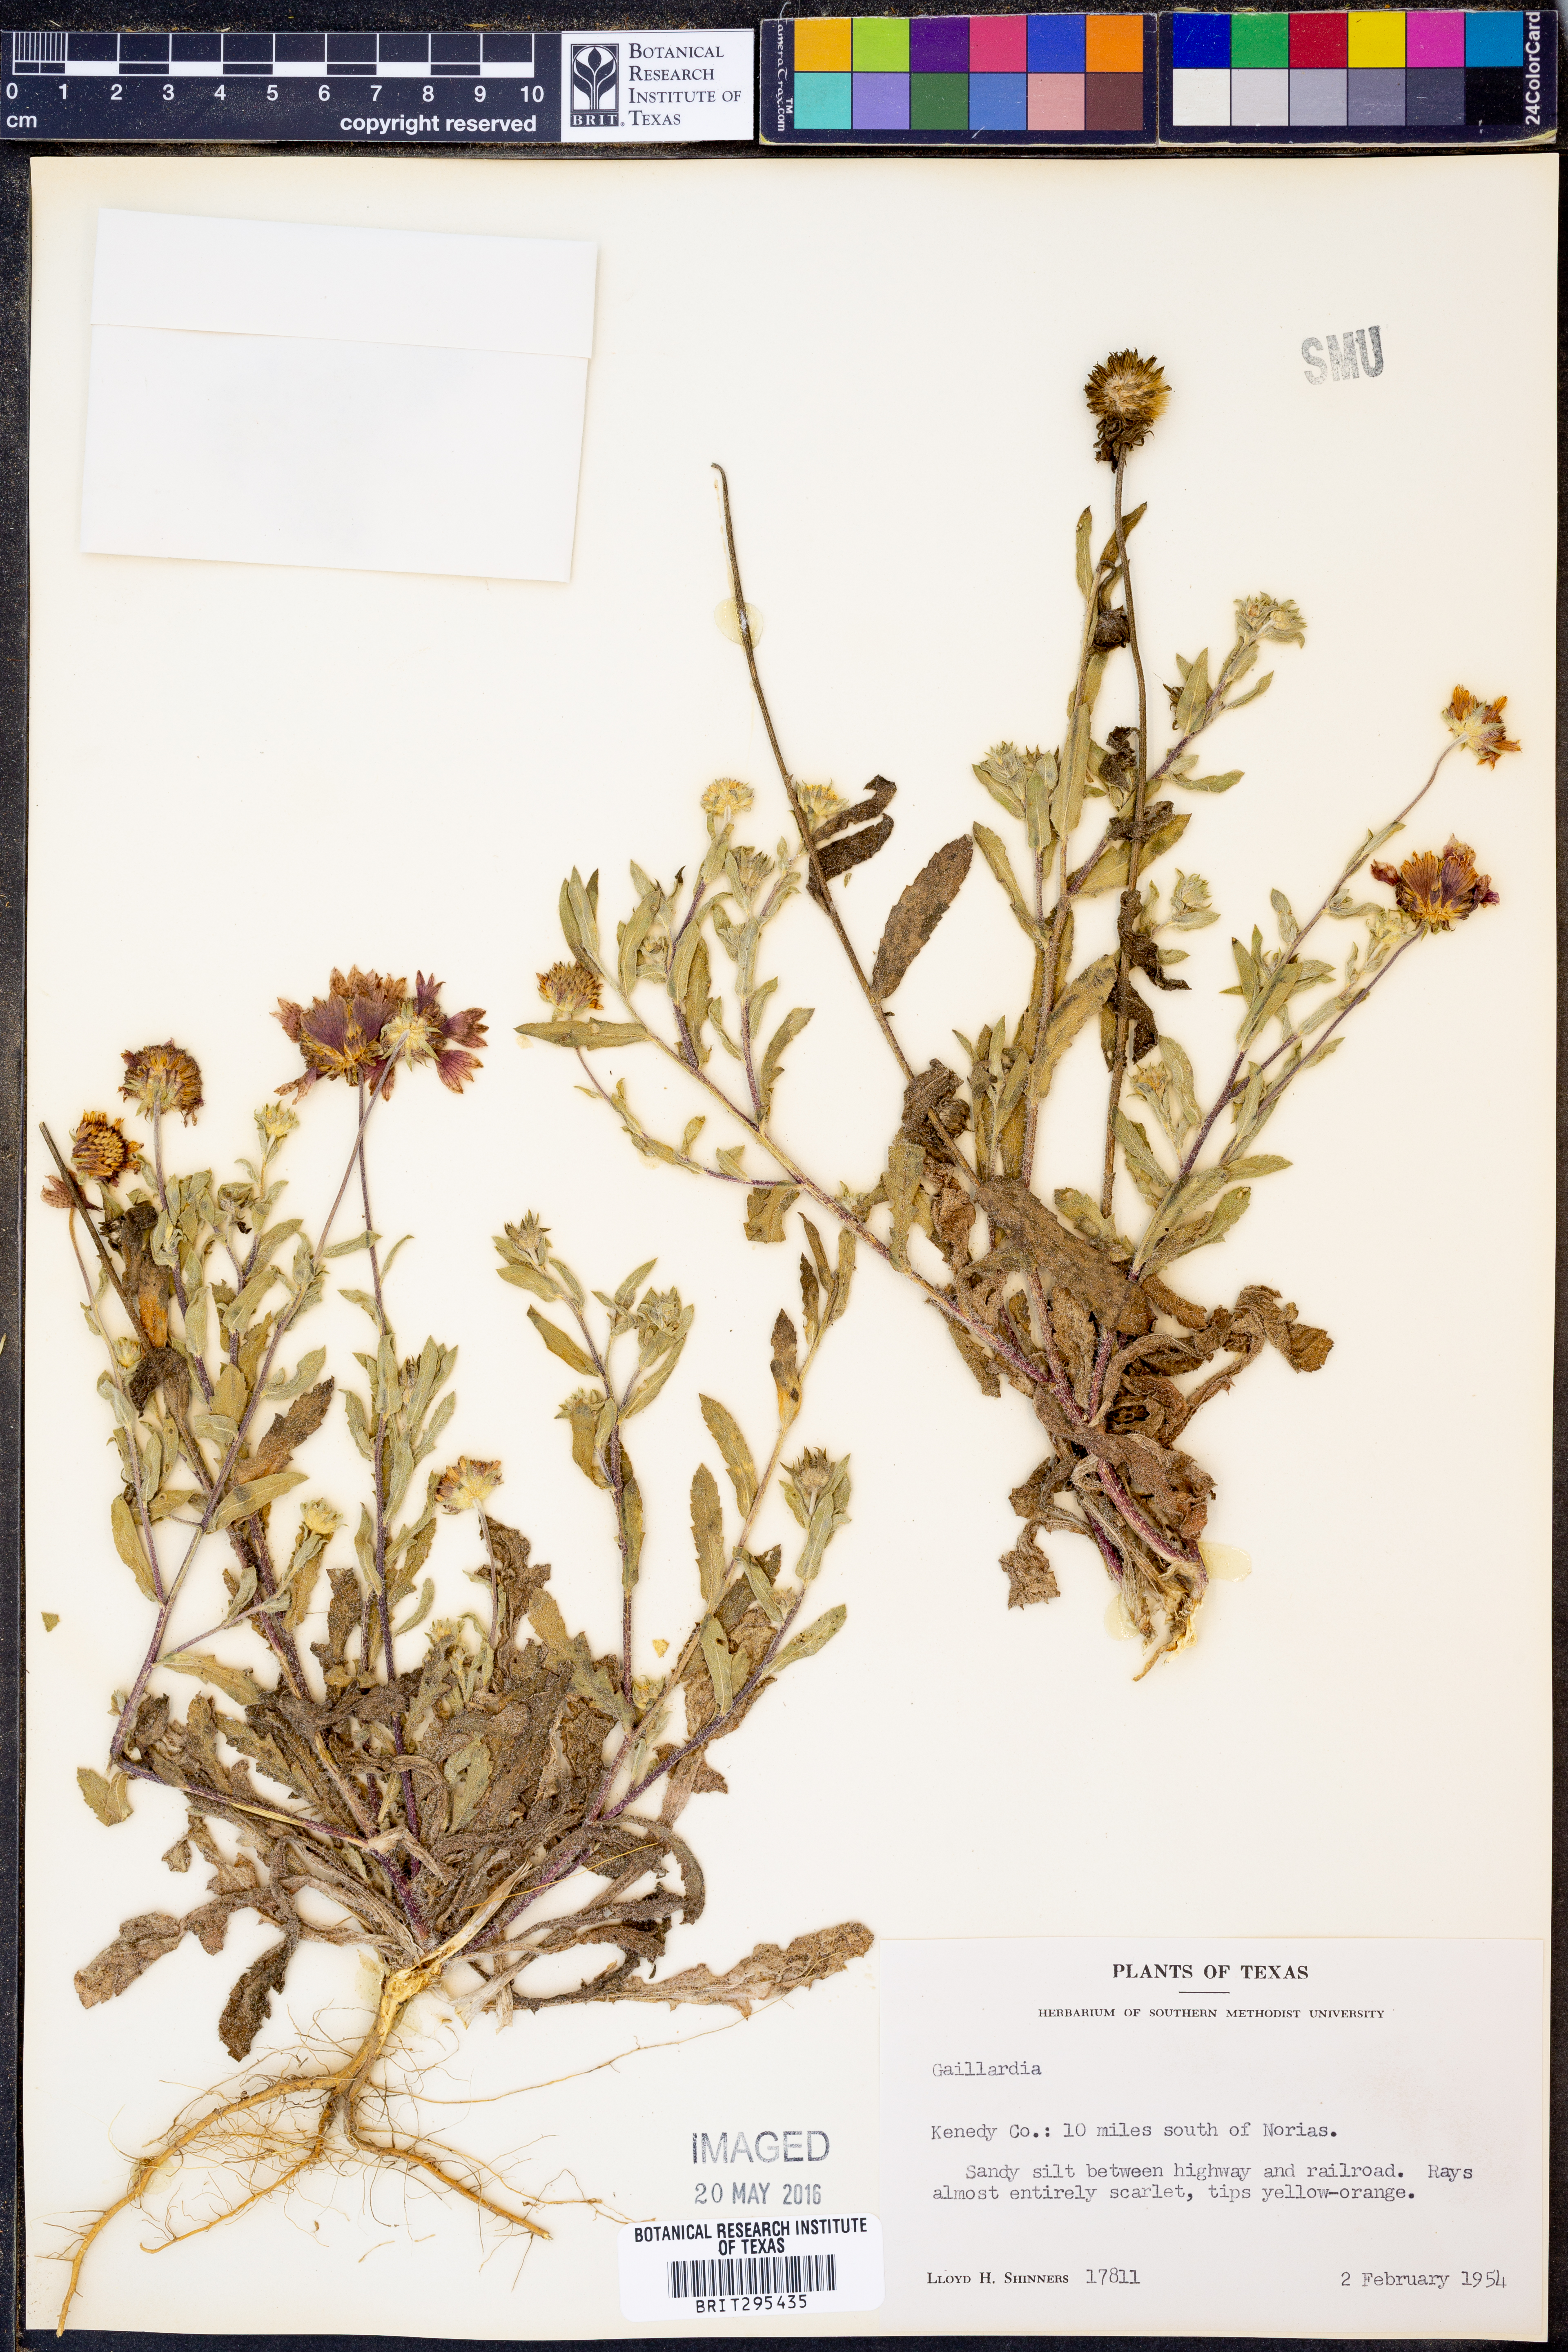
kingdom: Plantae
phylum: Tracheophyta
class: Magnoliopsida
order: Asterales
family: Asteraceae
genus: Gaillardia
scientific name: Gaillardia
